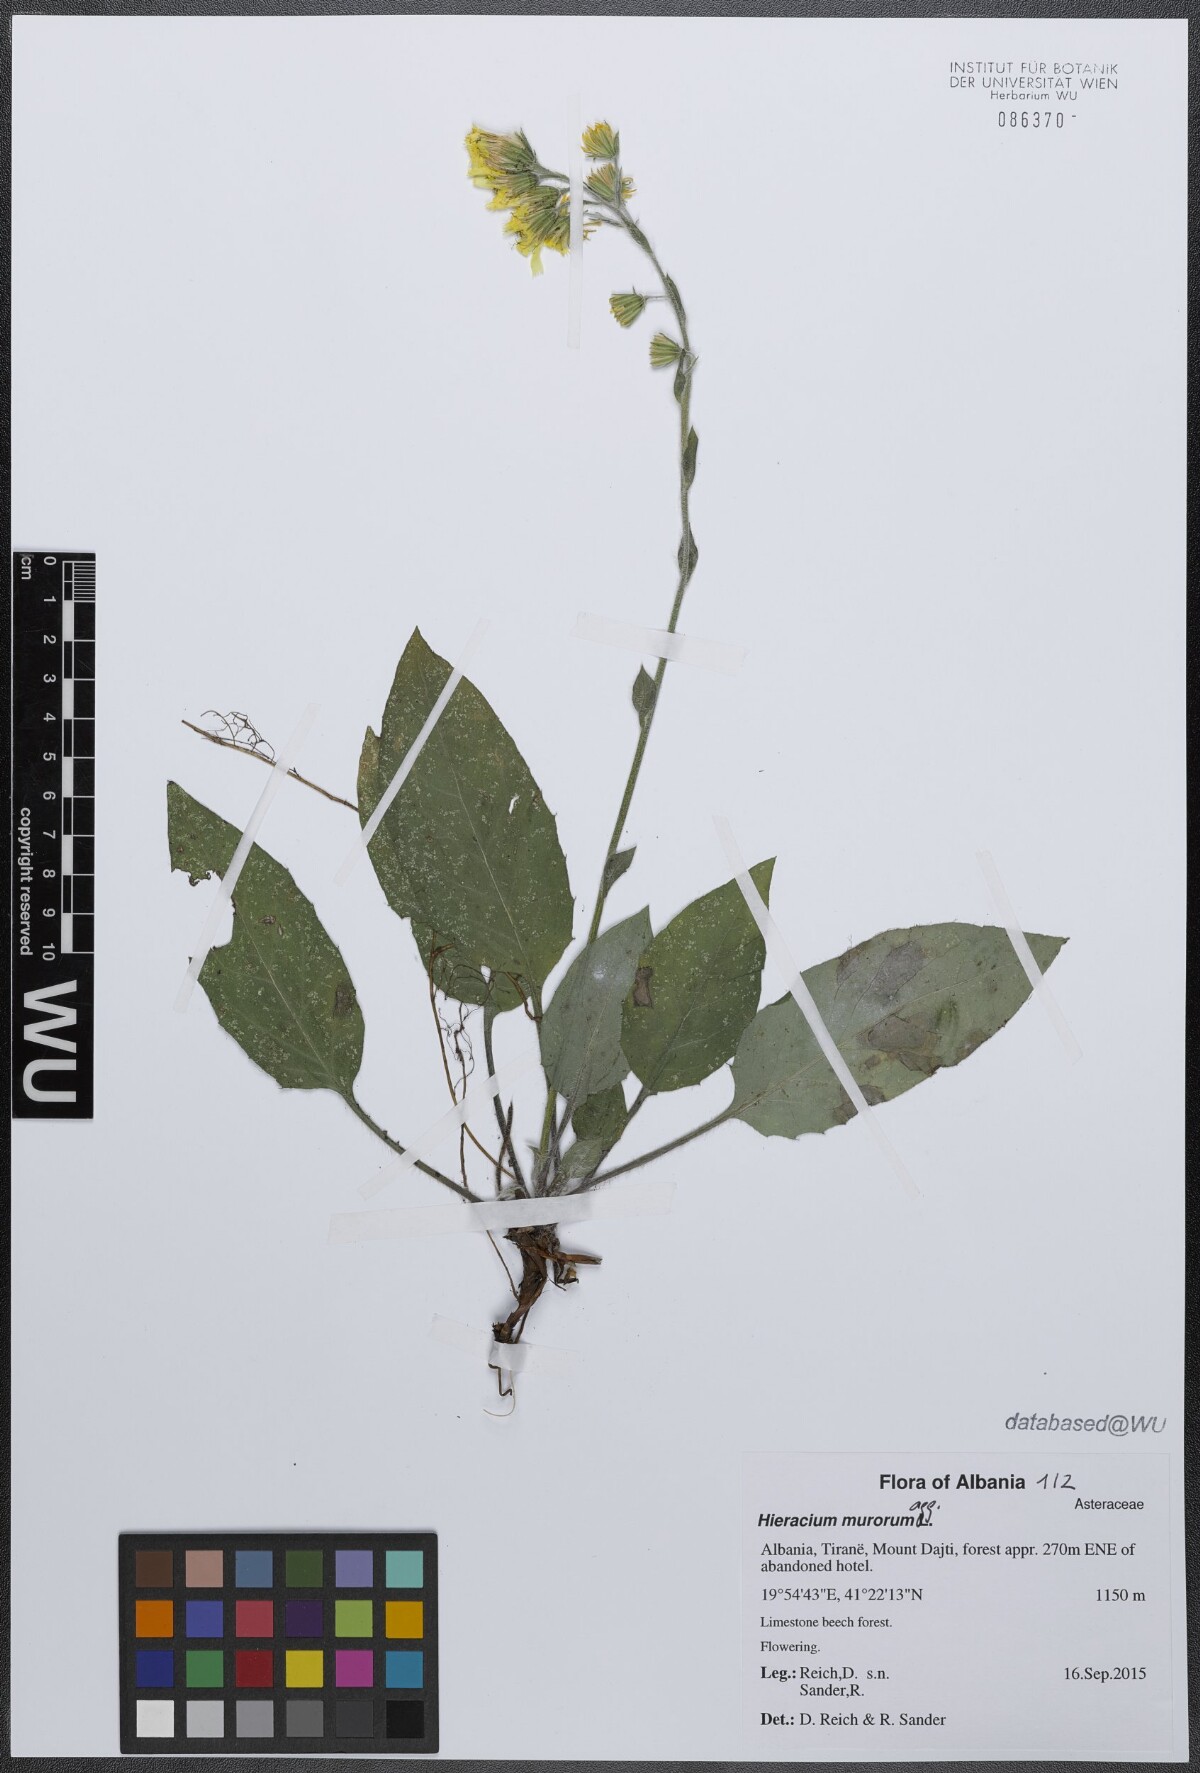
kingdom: Plantae
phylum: Tracheophyta
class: Magnoliopsida
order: Asterales
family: Asteraceae
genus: Hieracium
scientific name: Hieracium murorum
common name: Wall hawkweed
